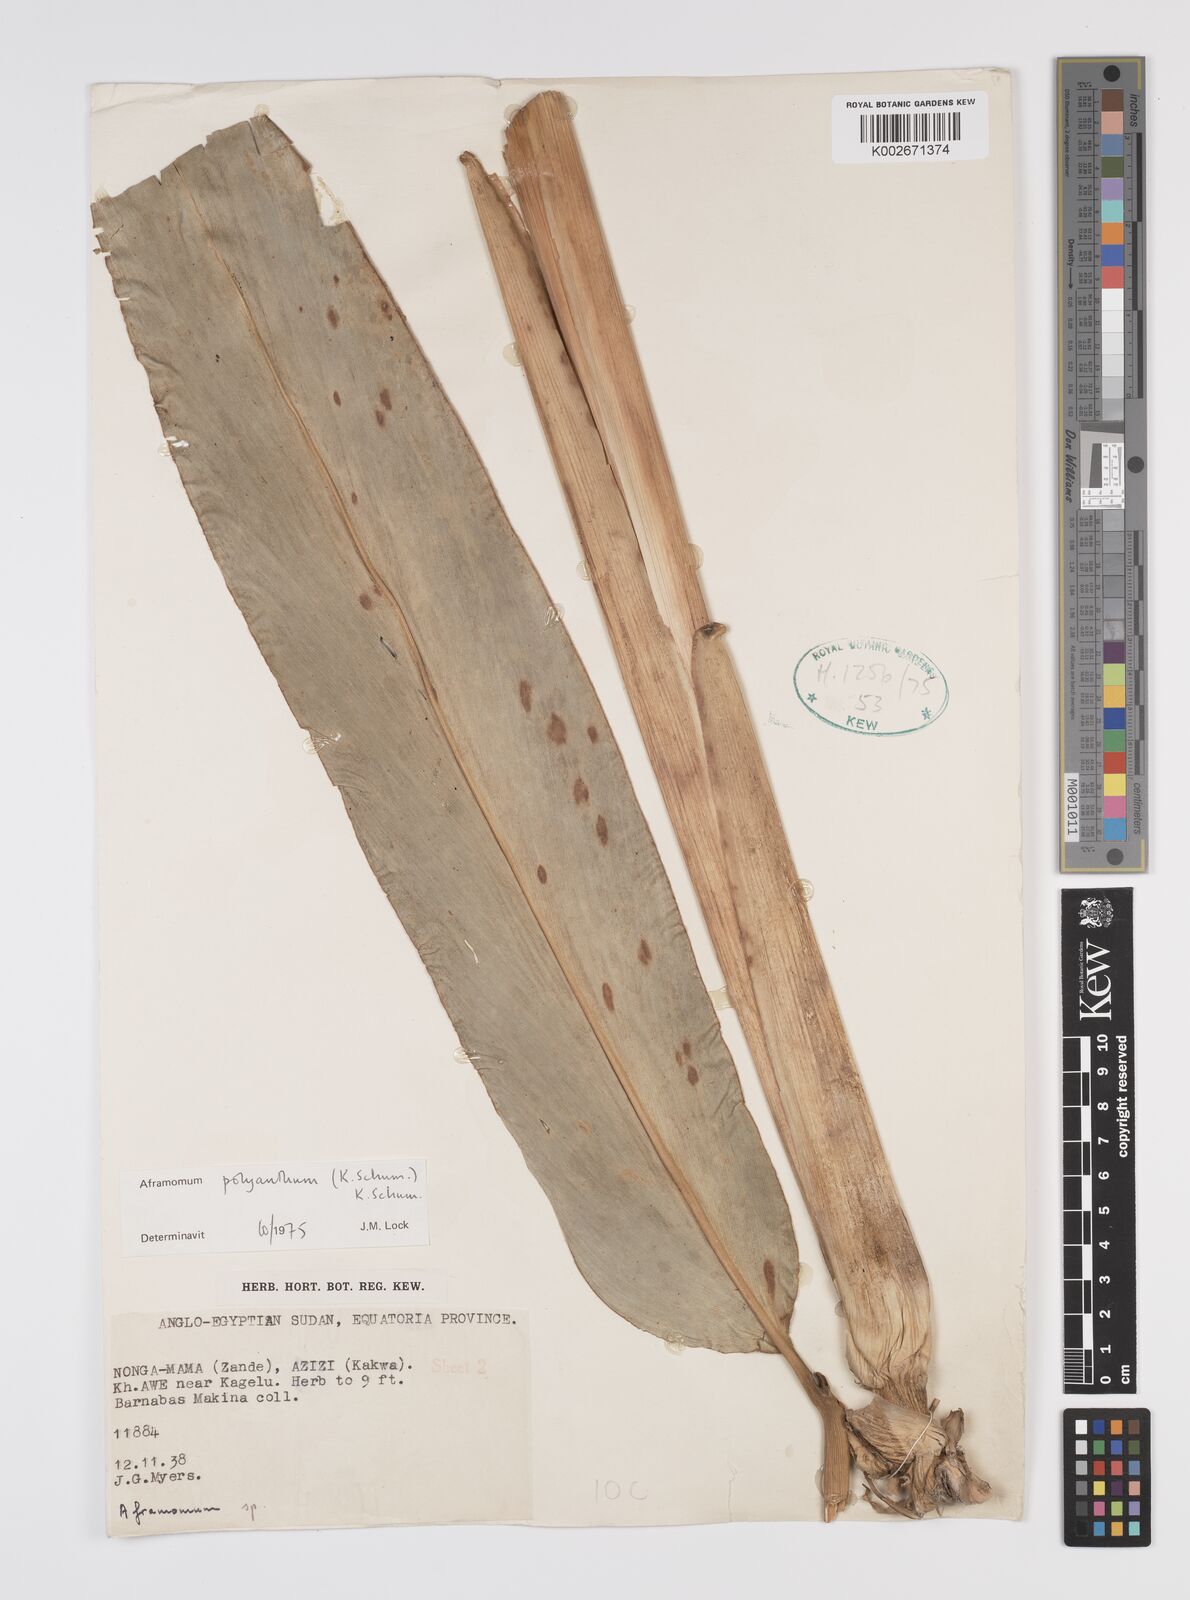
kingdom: Plantae
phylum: Tracheophyta
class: Liliopsida
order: Zingiberales
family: Zingiberaceae
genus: Aframomum
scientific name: Aframomum polyanthum
